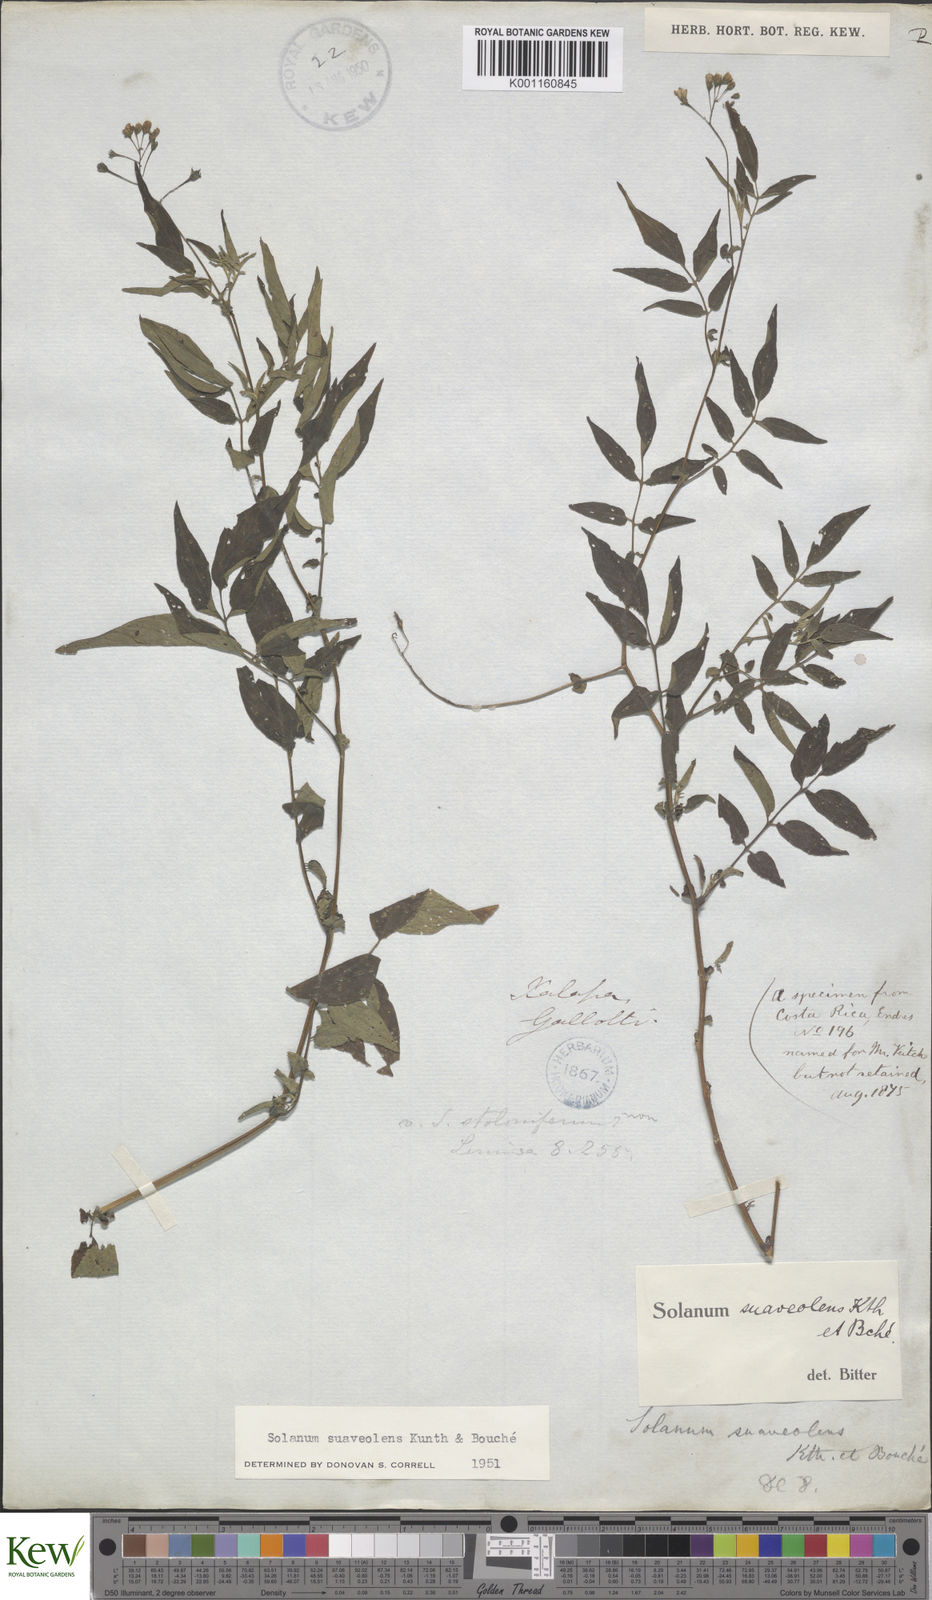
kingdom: Plantae
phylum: Tracheophyta
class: Magnoliopsida
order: Solanales
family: Solanaceae
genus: Solanum
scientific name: Solanum
